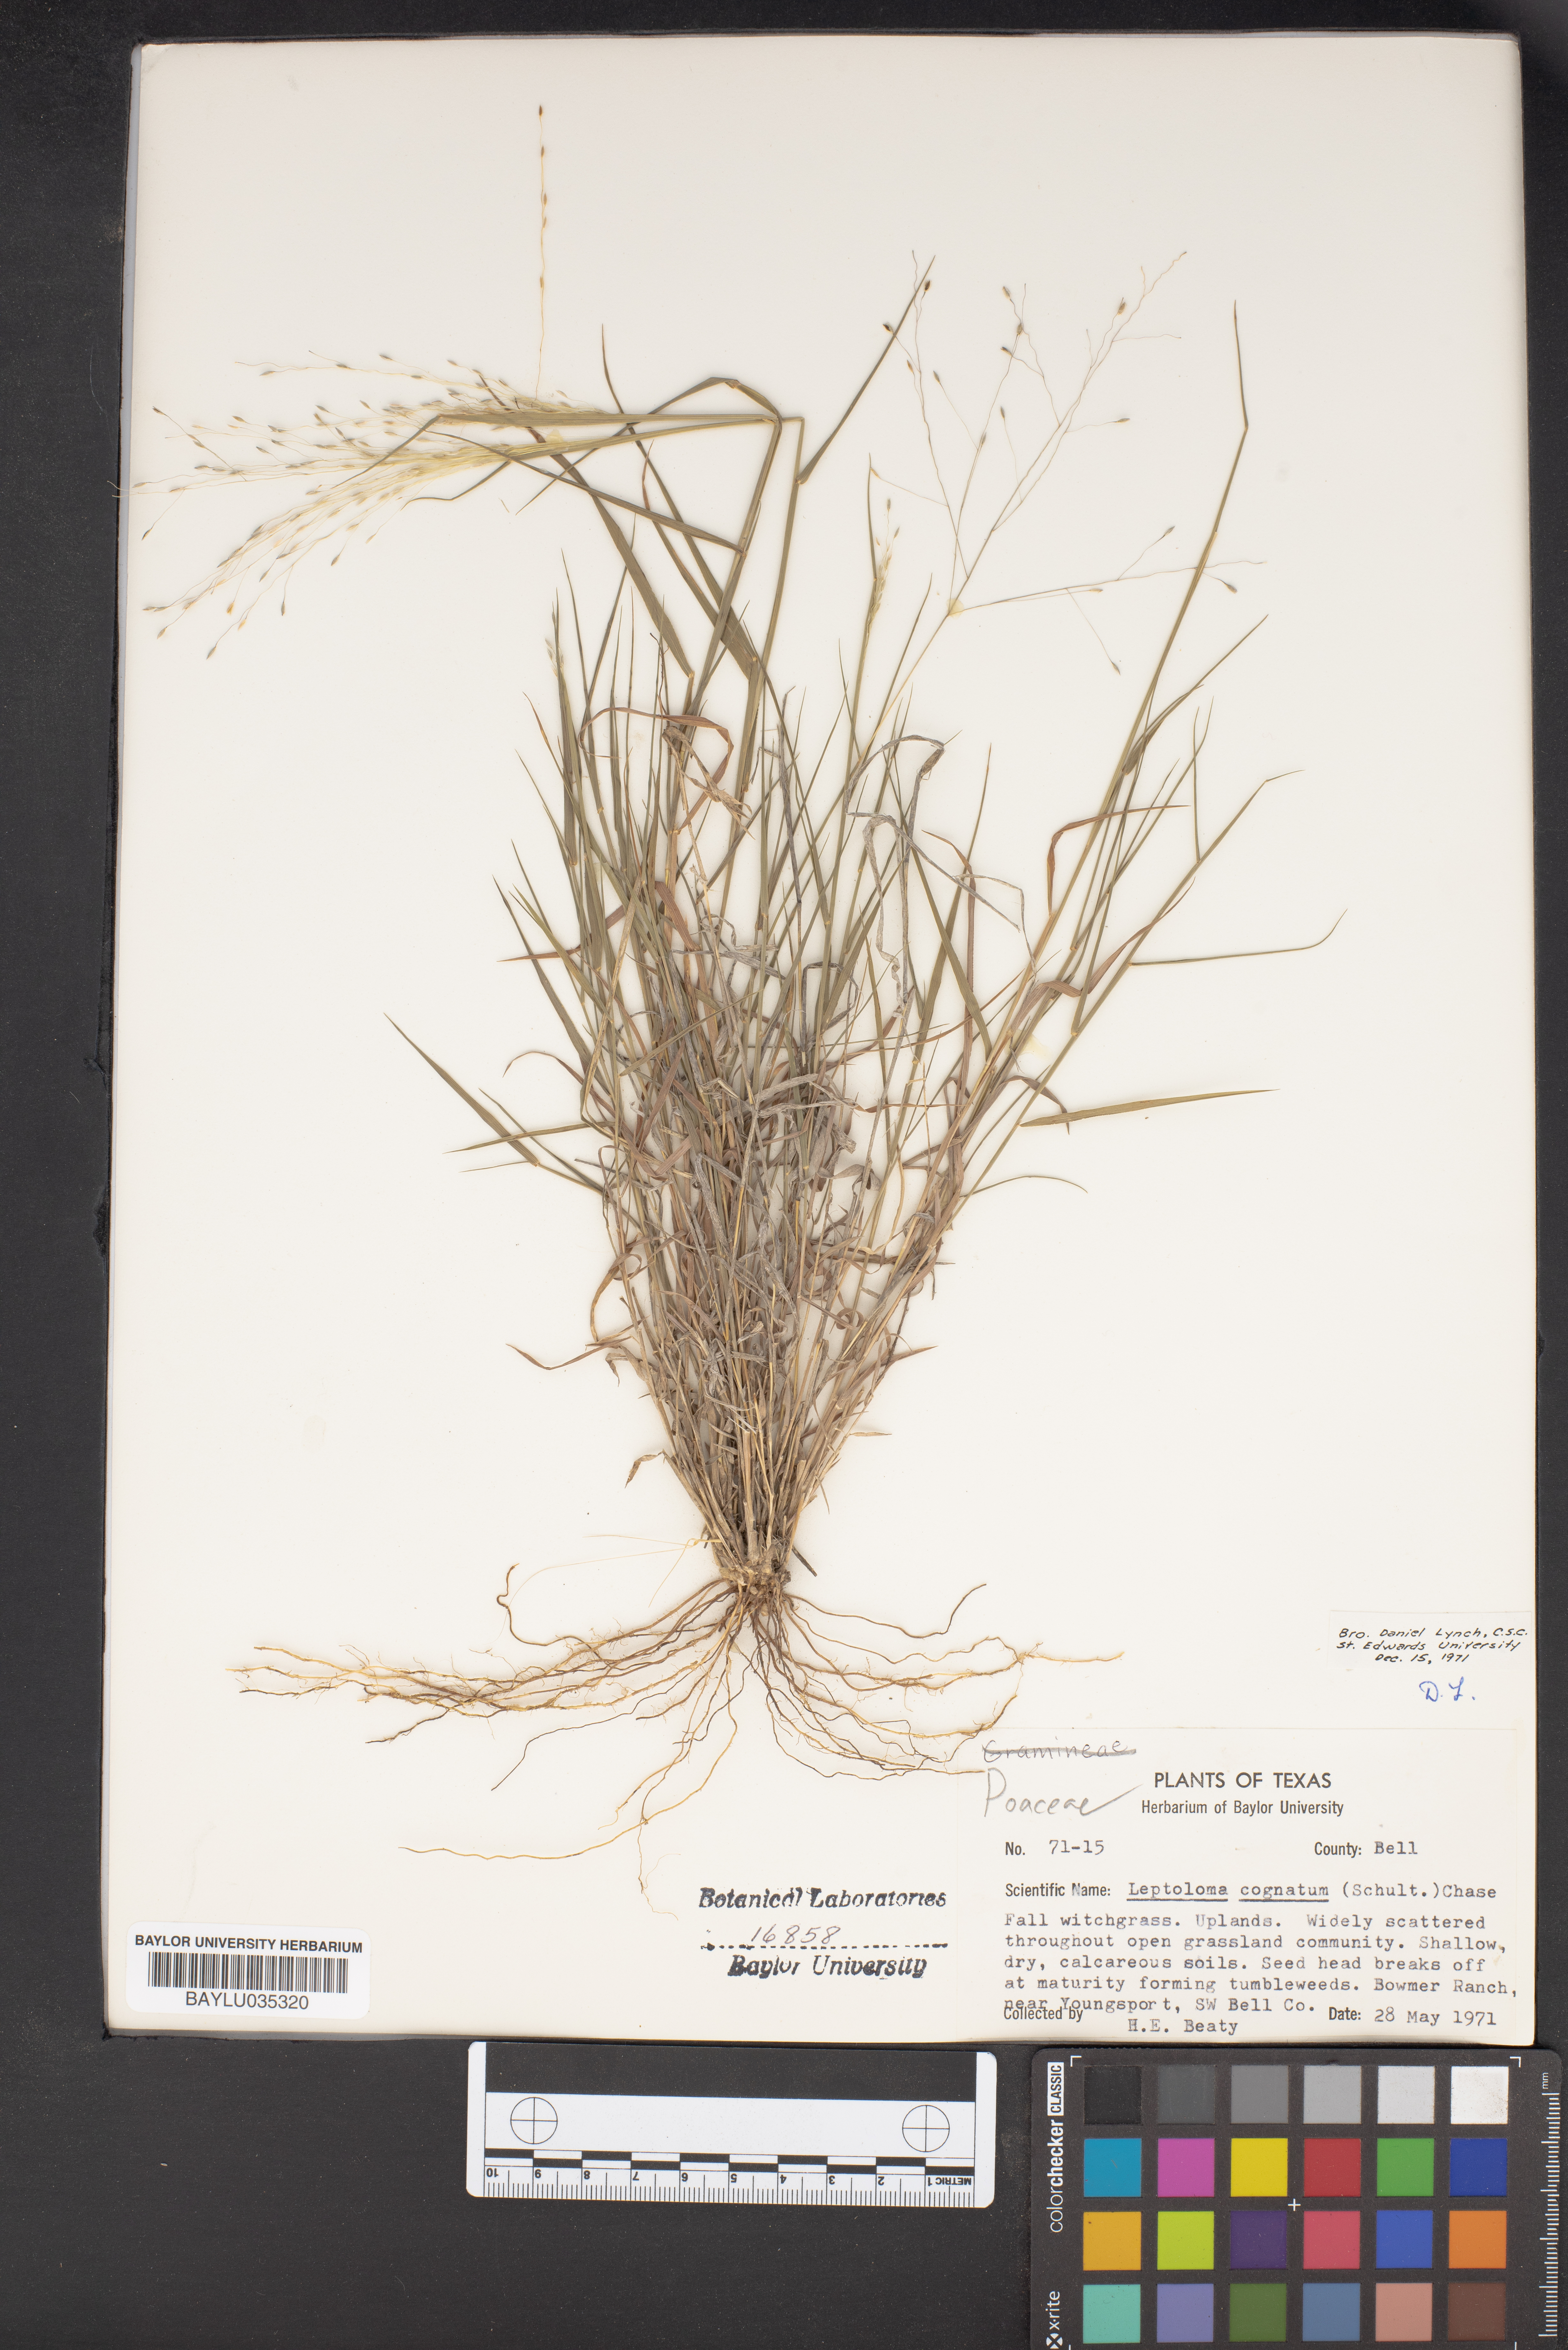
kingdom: Plantae
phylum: Tracheophyta
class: Liliopsida
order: Poales
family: Poaceae
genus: Digitaria
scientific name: Digitaria cognata
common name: Fall witchgrass
